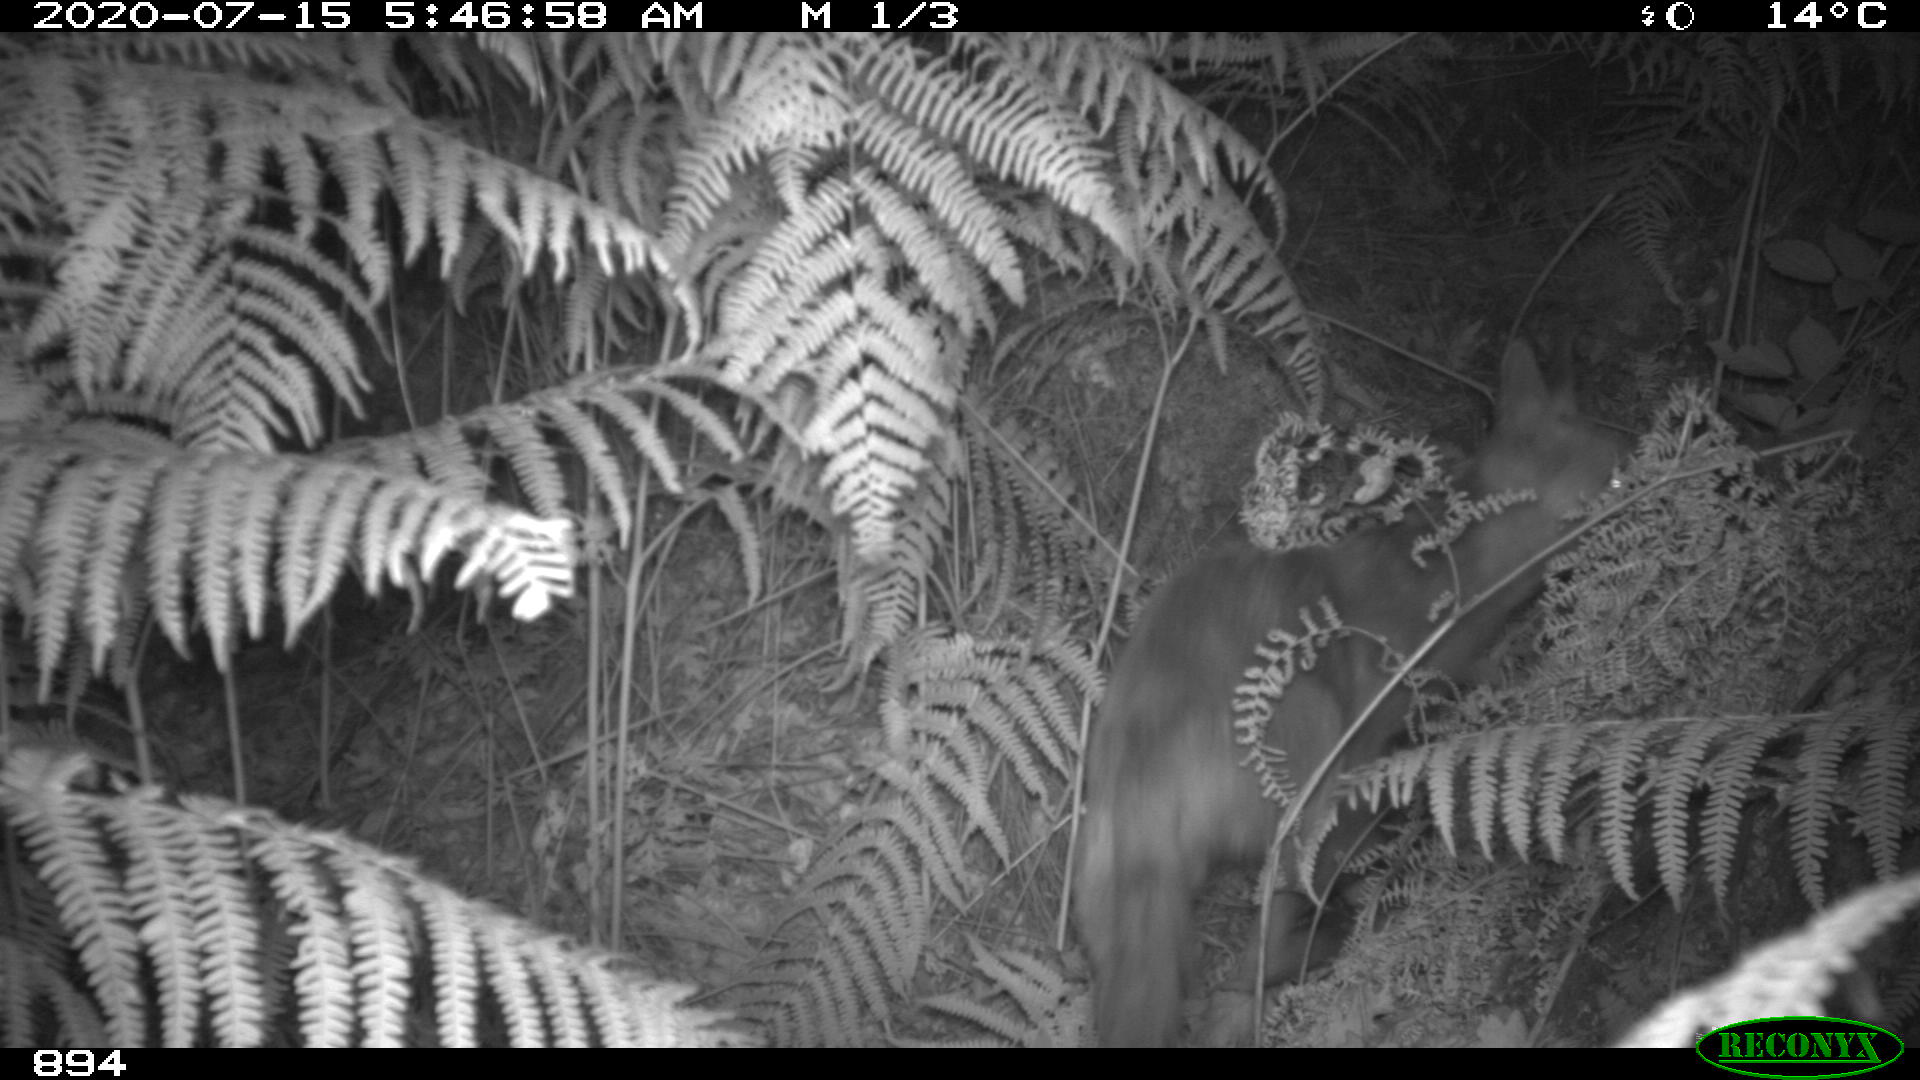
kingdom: Animalia
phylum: Chordata
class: Mammalia
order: Carnivora
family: Canidae
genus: Vulpes
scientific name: Vulpes vulpes
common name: Red fox
